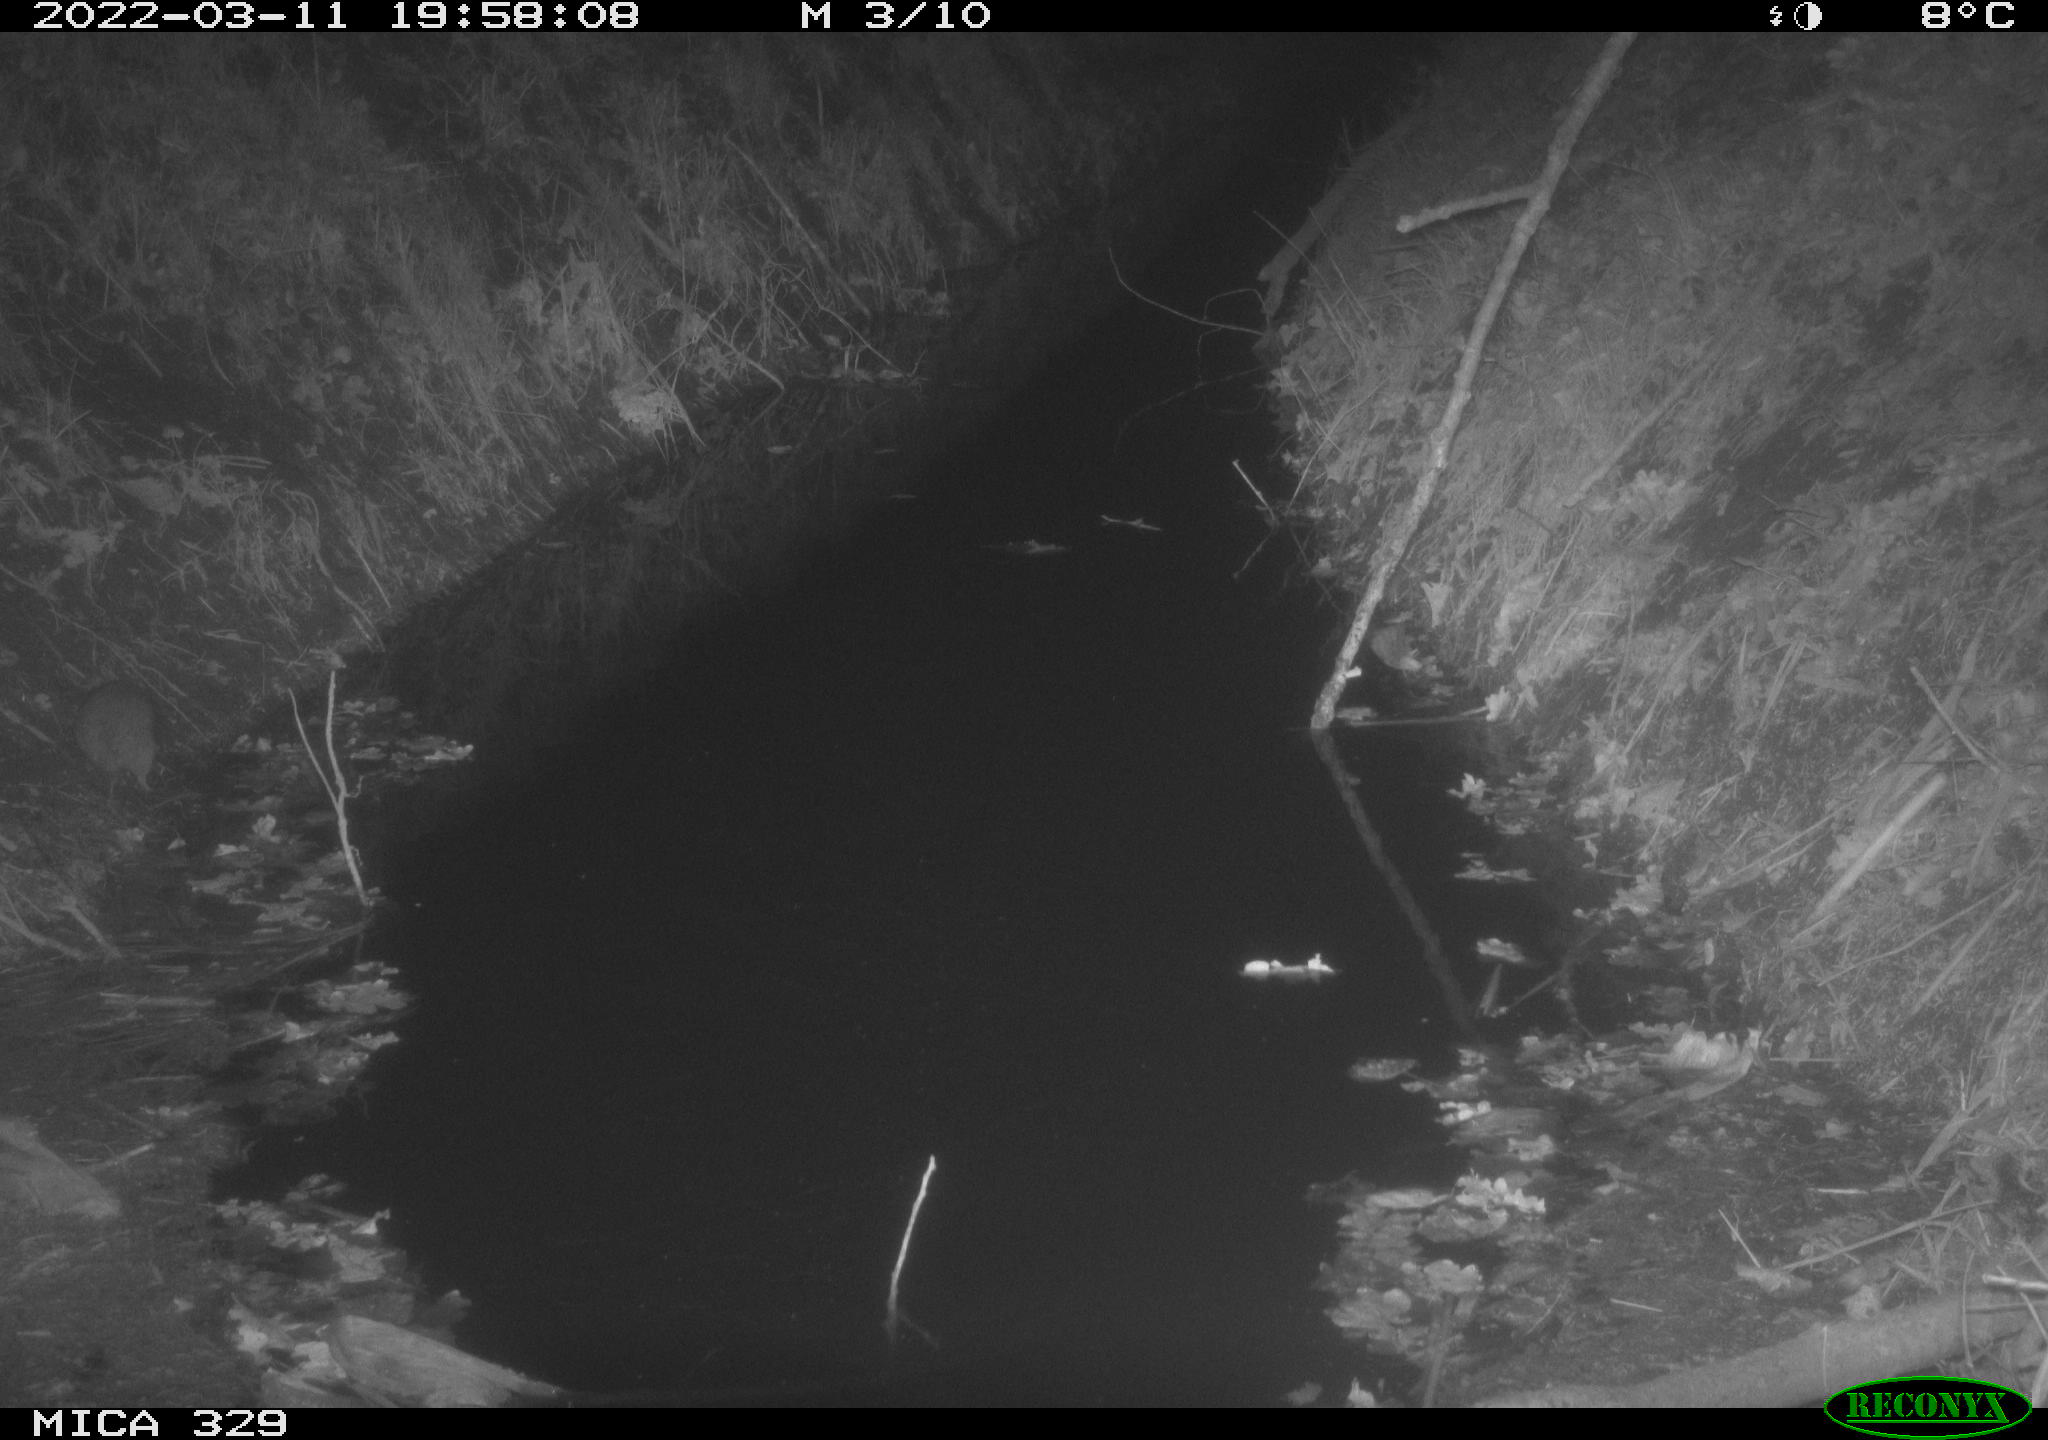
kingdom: Animalia
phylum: Chordata
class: Mammalia
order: Rodentia
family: Muridae
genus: Rattus
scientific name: Rattus norvegicus
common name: Brown rat
